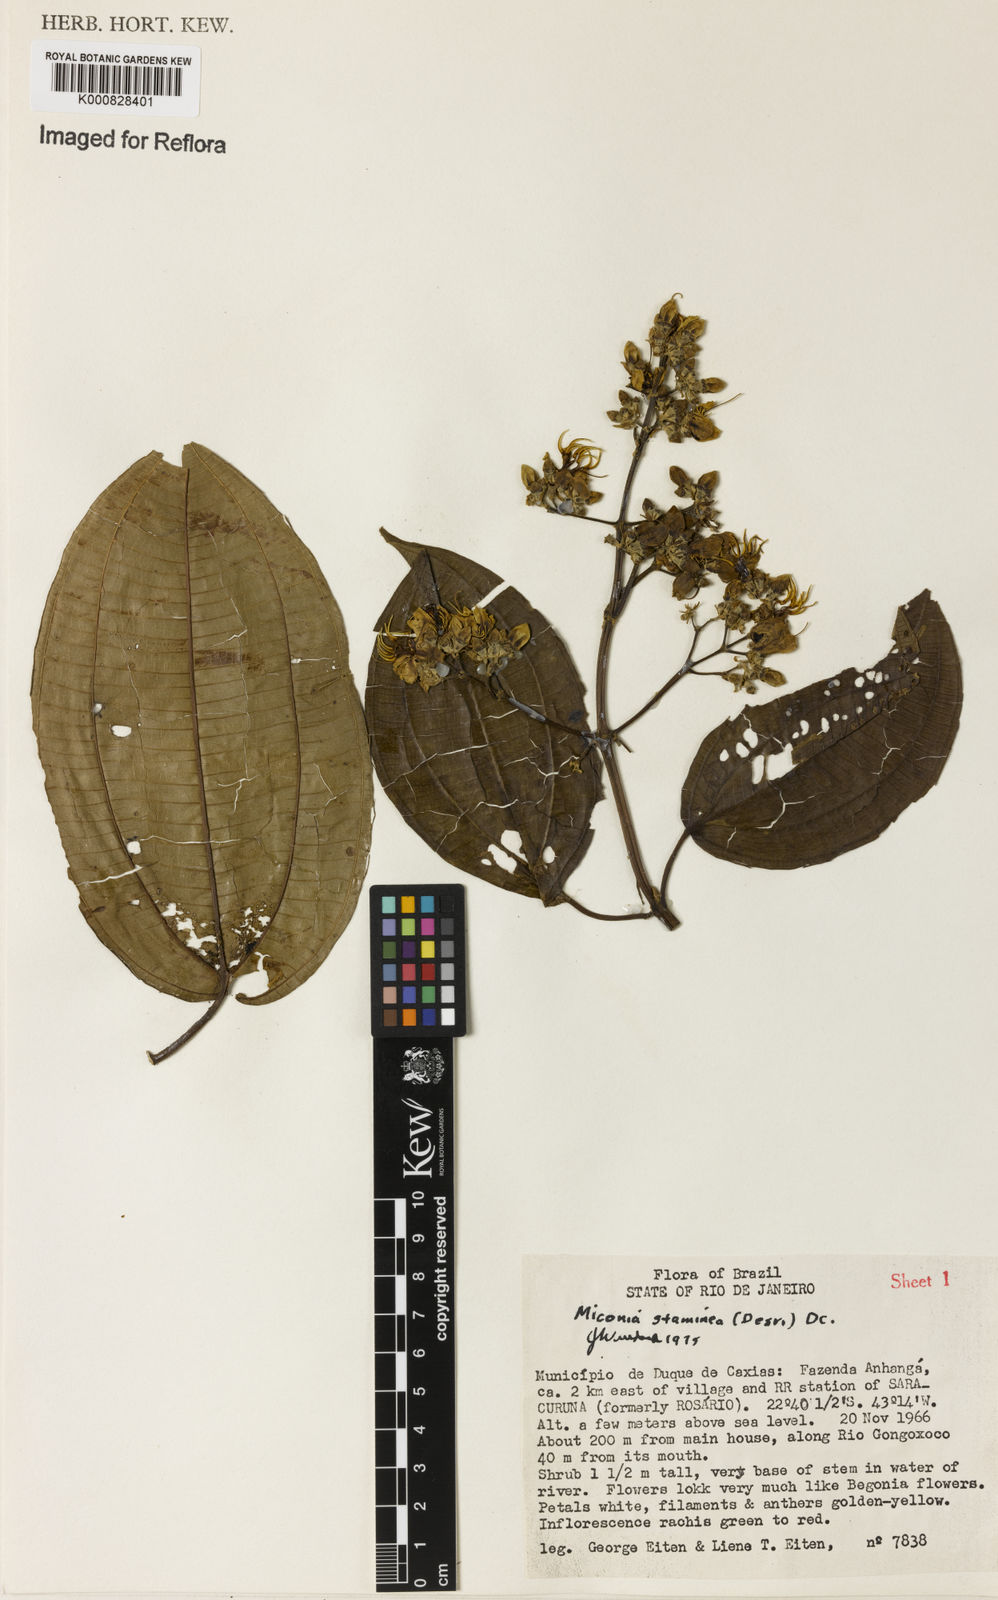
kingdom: Plantae
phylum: Tracheophyta
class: Magnoliopsida
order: Myrtales
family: Melastomataceae
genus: Miconia
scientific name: Miconia staminea
